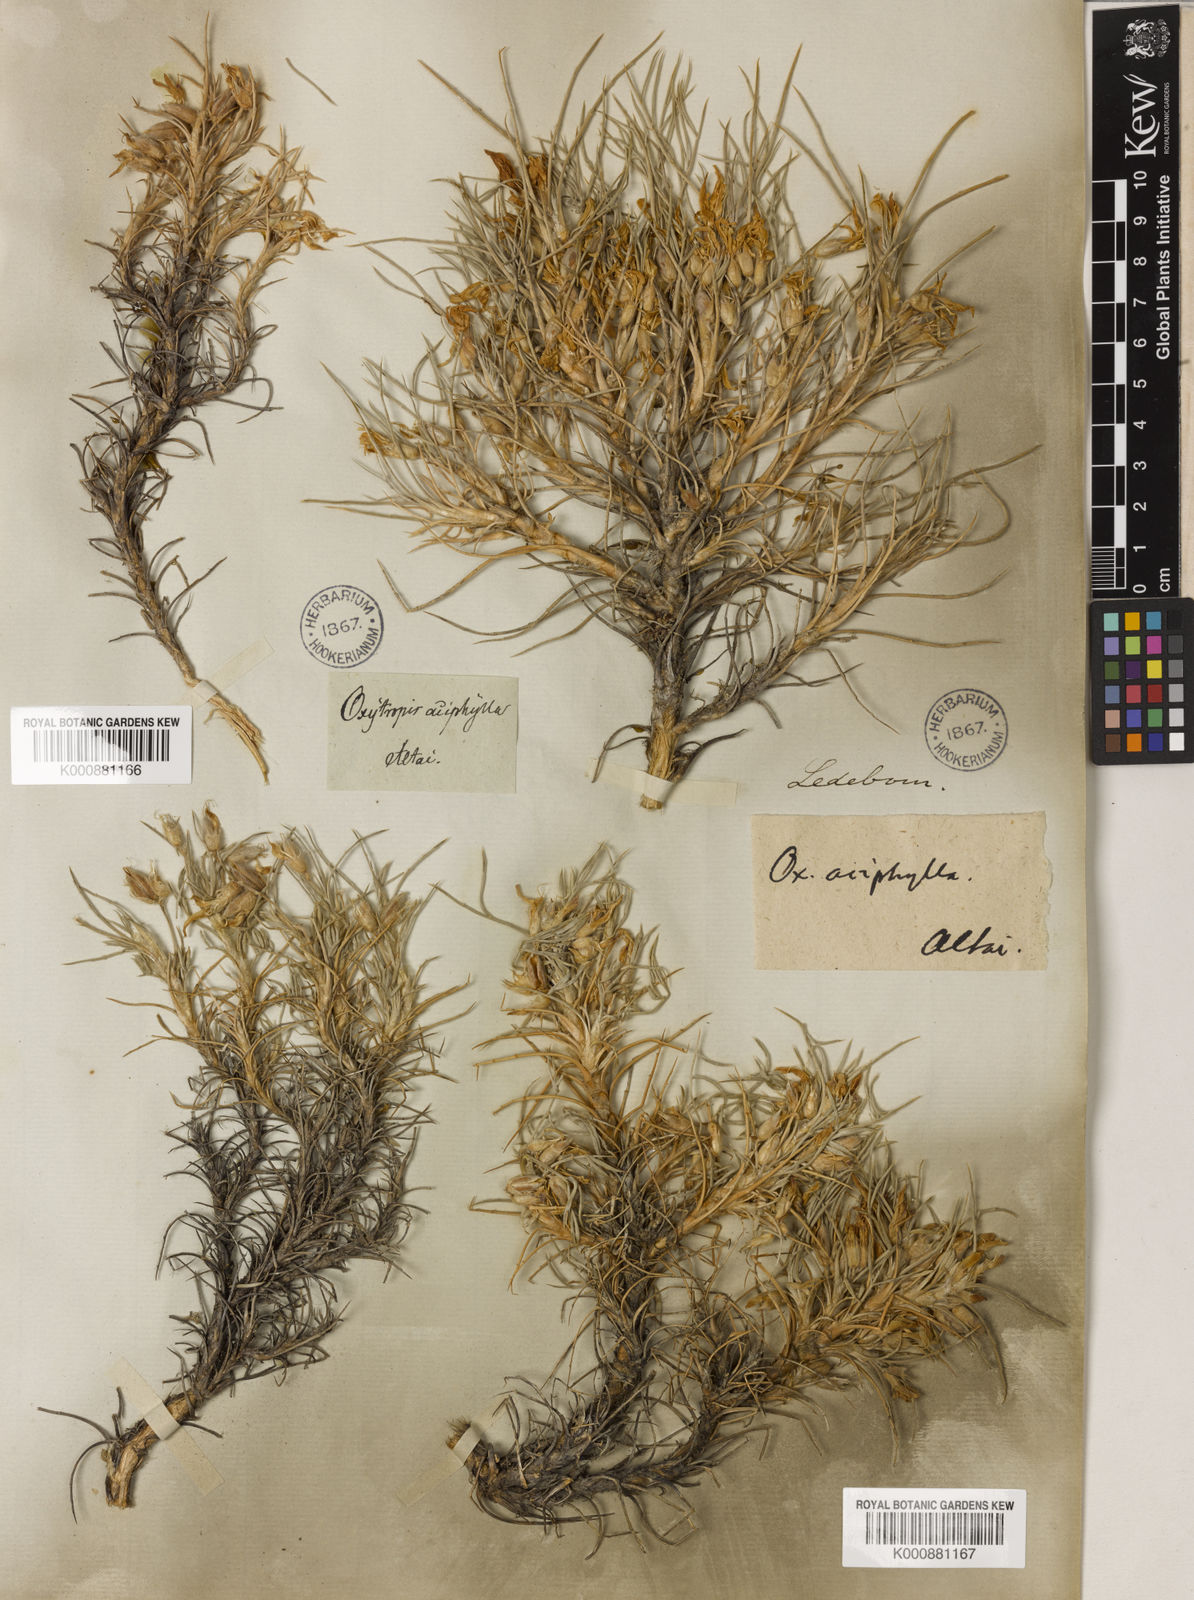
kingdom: Plantae
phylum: Tracheophyta
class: Magnoliopsida
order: Fabales
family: Fabaceae
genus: Oxytropis
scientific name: Oxytropis aciphylla
